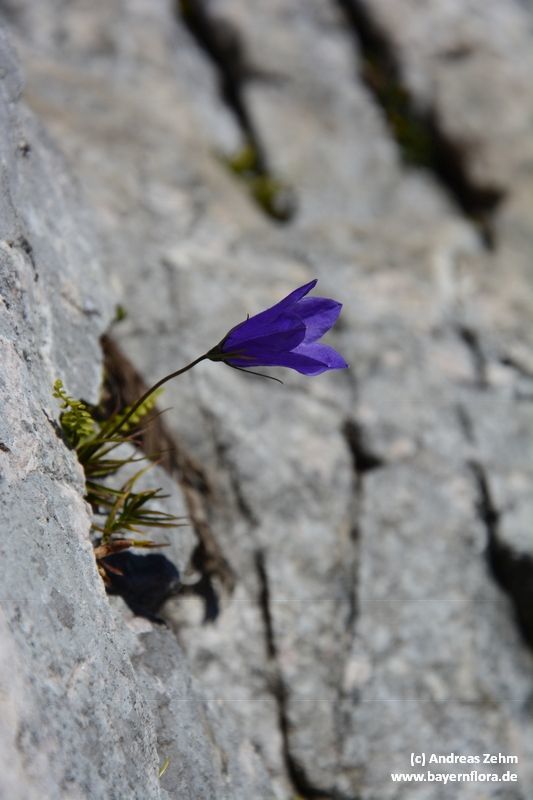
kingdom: Plantae
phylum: Tracheophyta
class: Magnoliopsida
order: Asterales
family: Campanulaceae
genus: Campanula
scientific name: Campanula scheuchzeri
